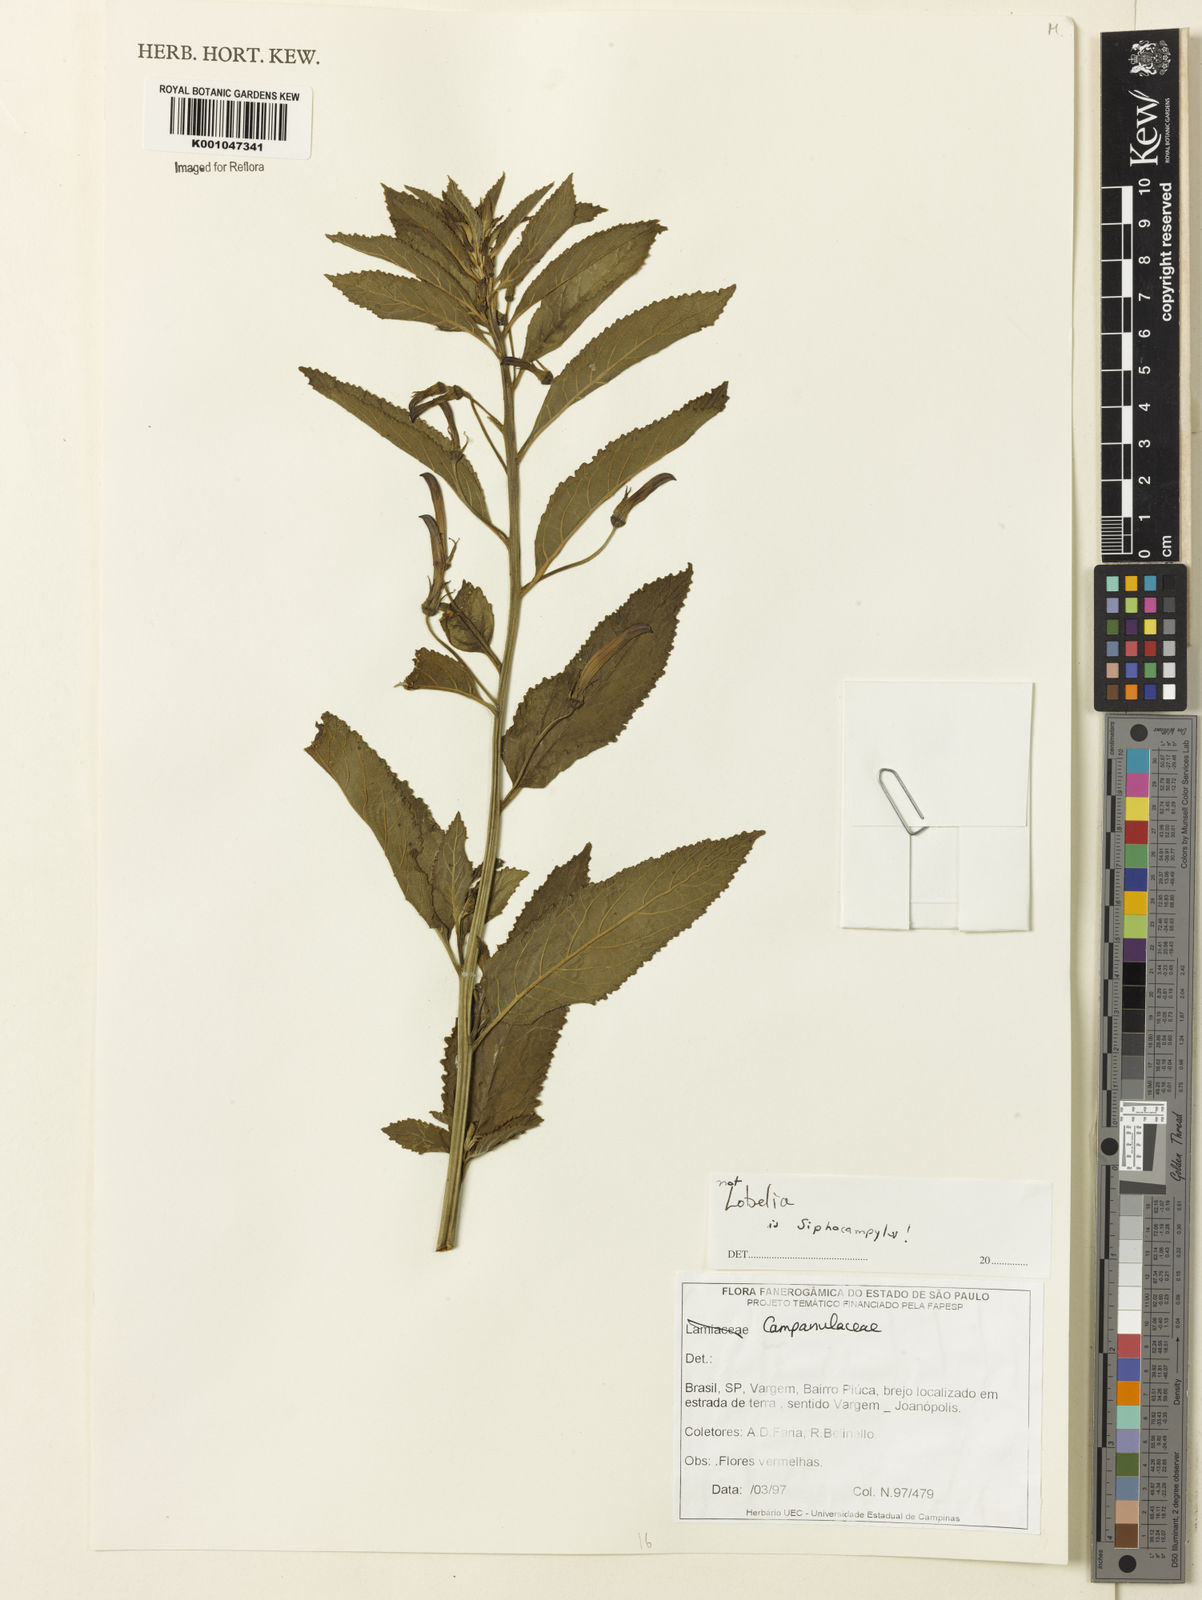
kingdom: Plantae
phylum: Tracheophyta
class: Magnoliopsida
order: Asterales
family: Campanulaceae
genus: Siphocampylus
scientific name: Siphocampylus
